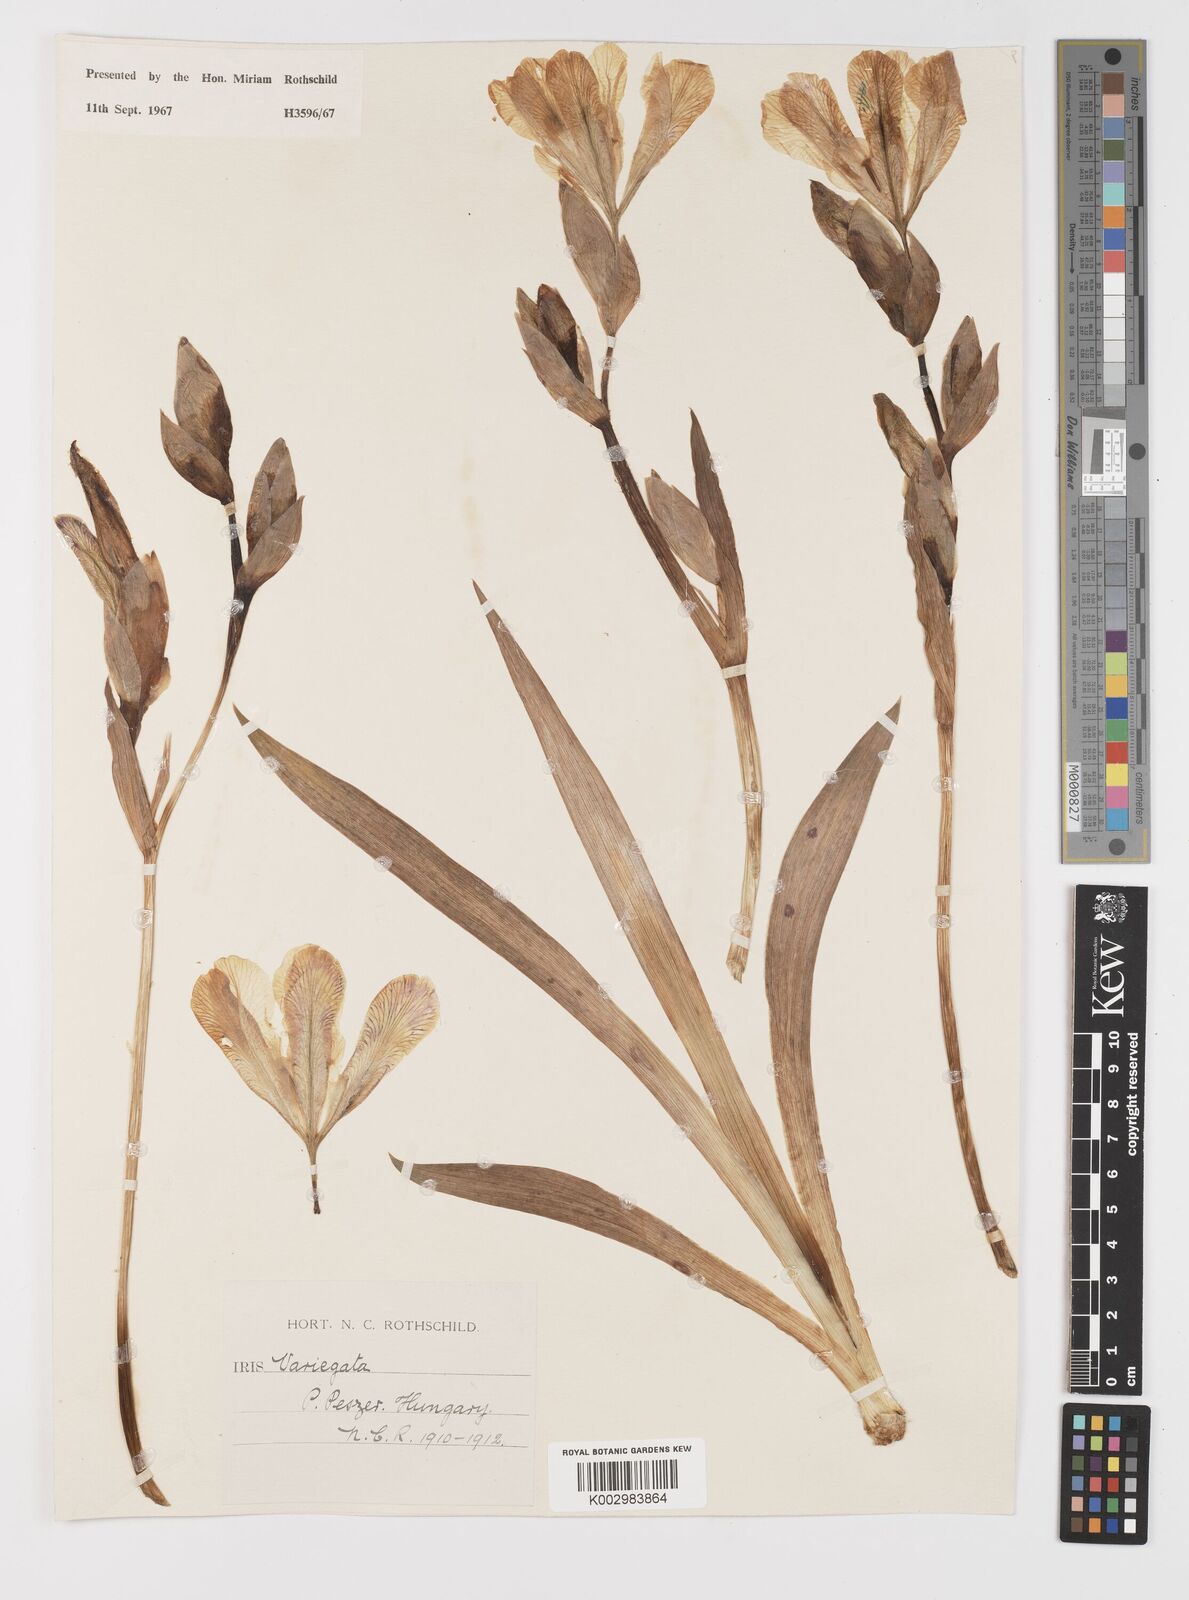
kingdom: Plantae
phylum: Tracheophyta
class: Liliopsida
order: Asparagales
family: Iridaceae
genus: Iris
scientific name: Iris variegata
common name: Hungarian iris
